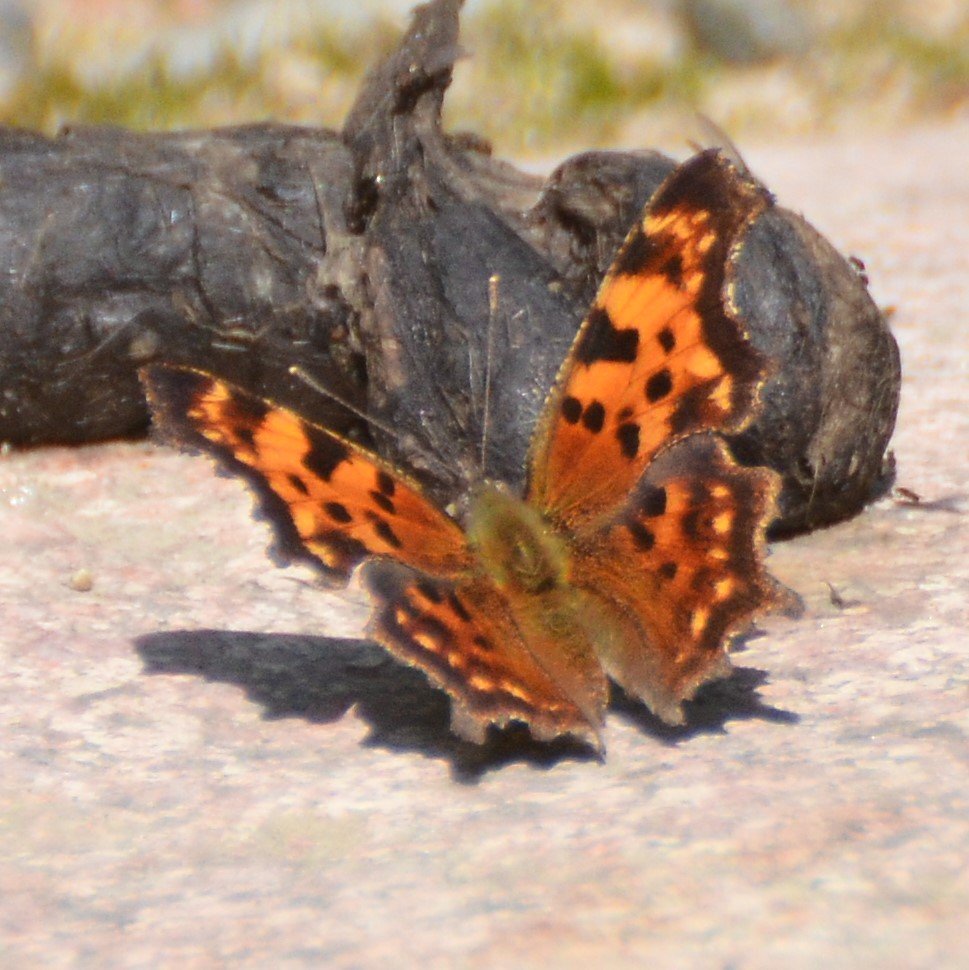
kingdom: Animalia
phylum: Arthropoda
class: Insecta
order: Lepidoptera
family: Nymphalidae
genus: Polygonia
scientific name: Polygonia faunus
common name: Green Comma
